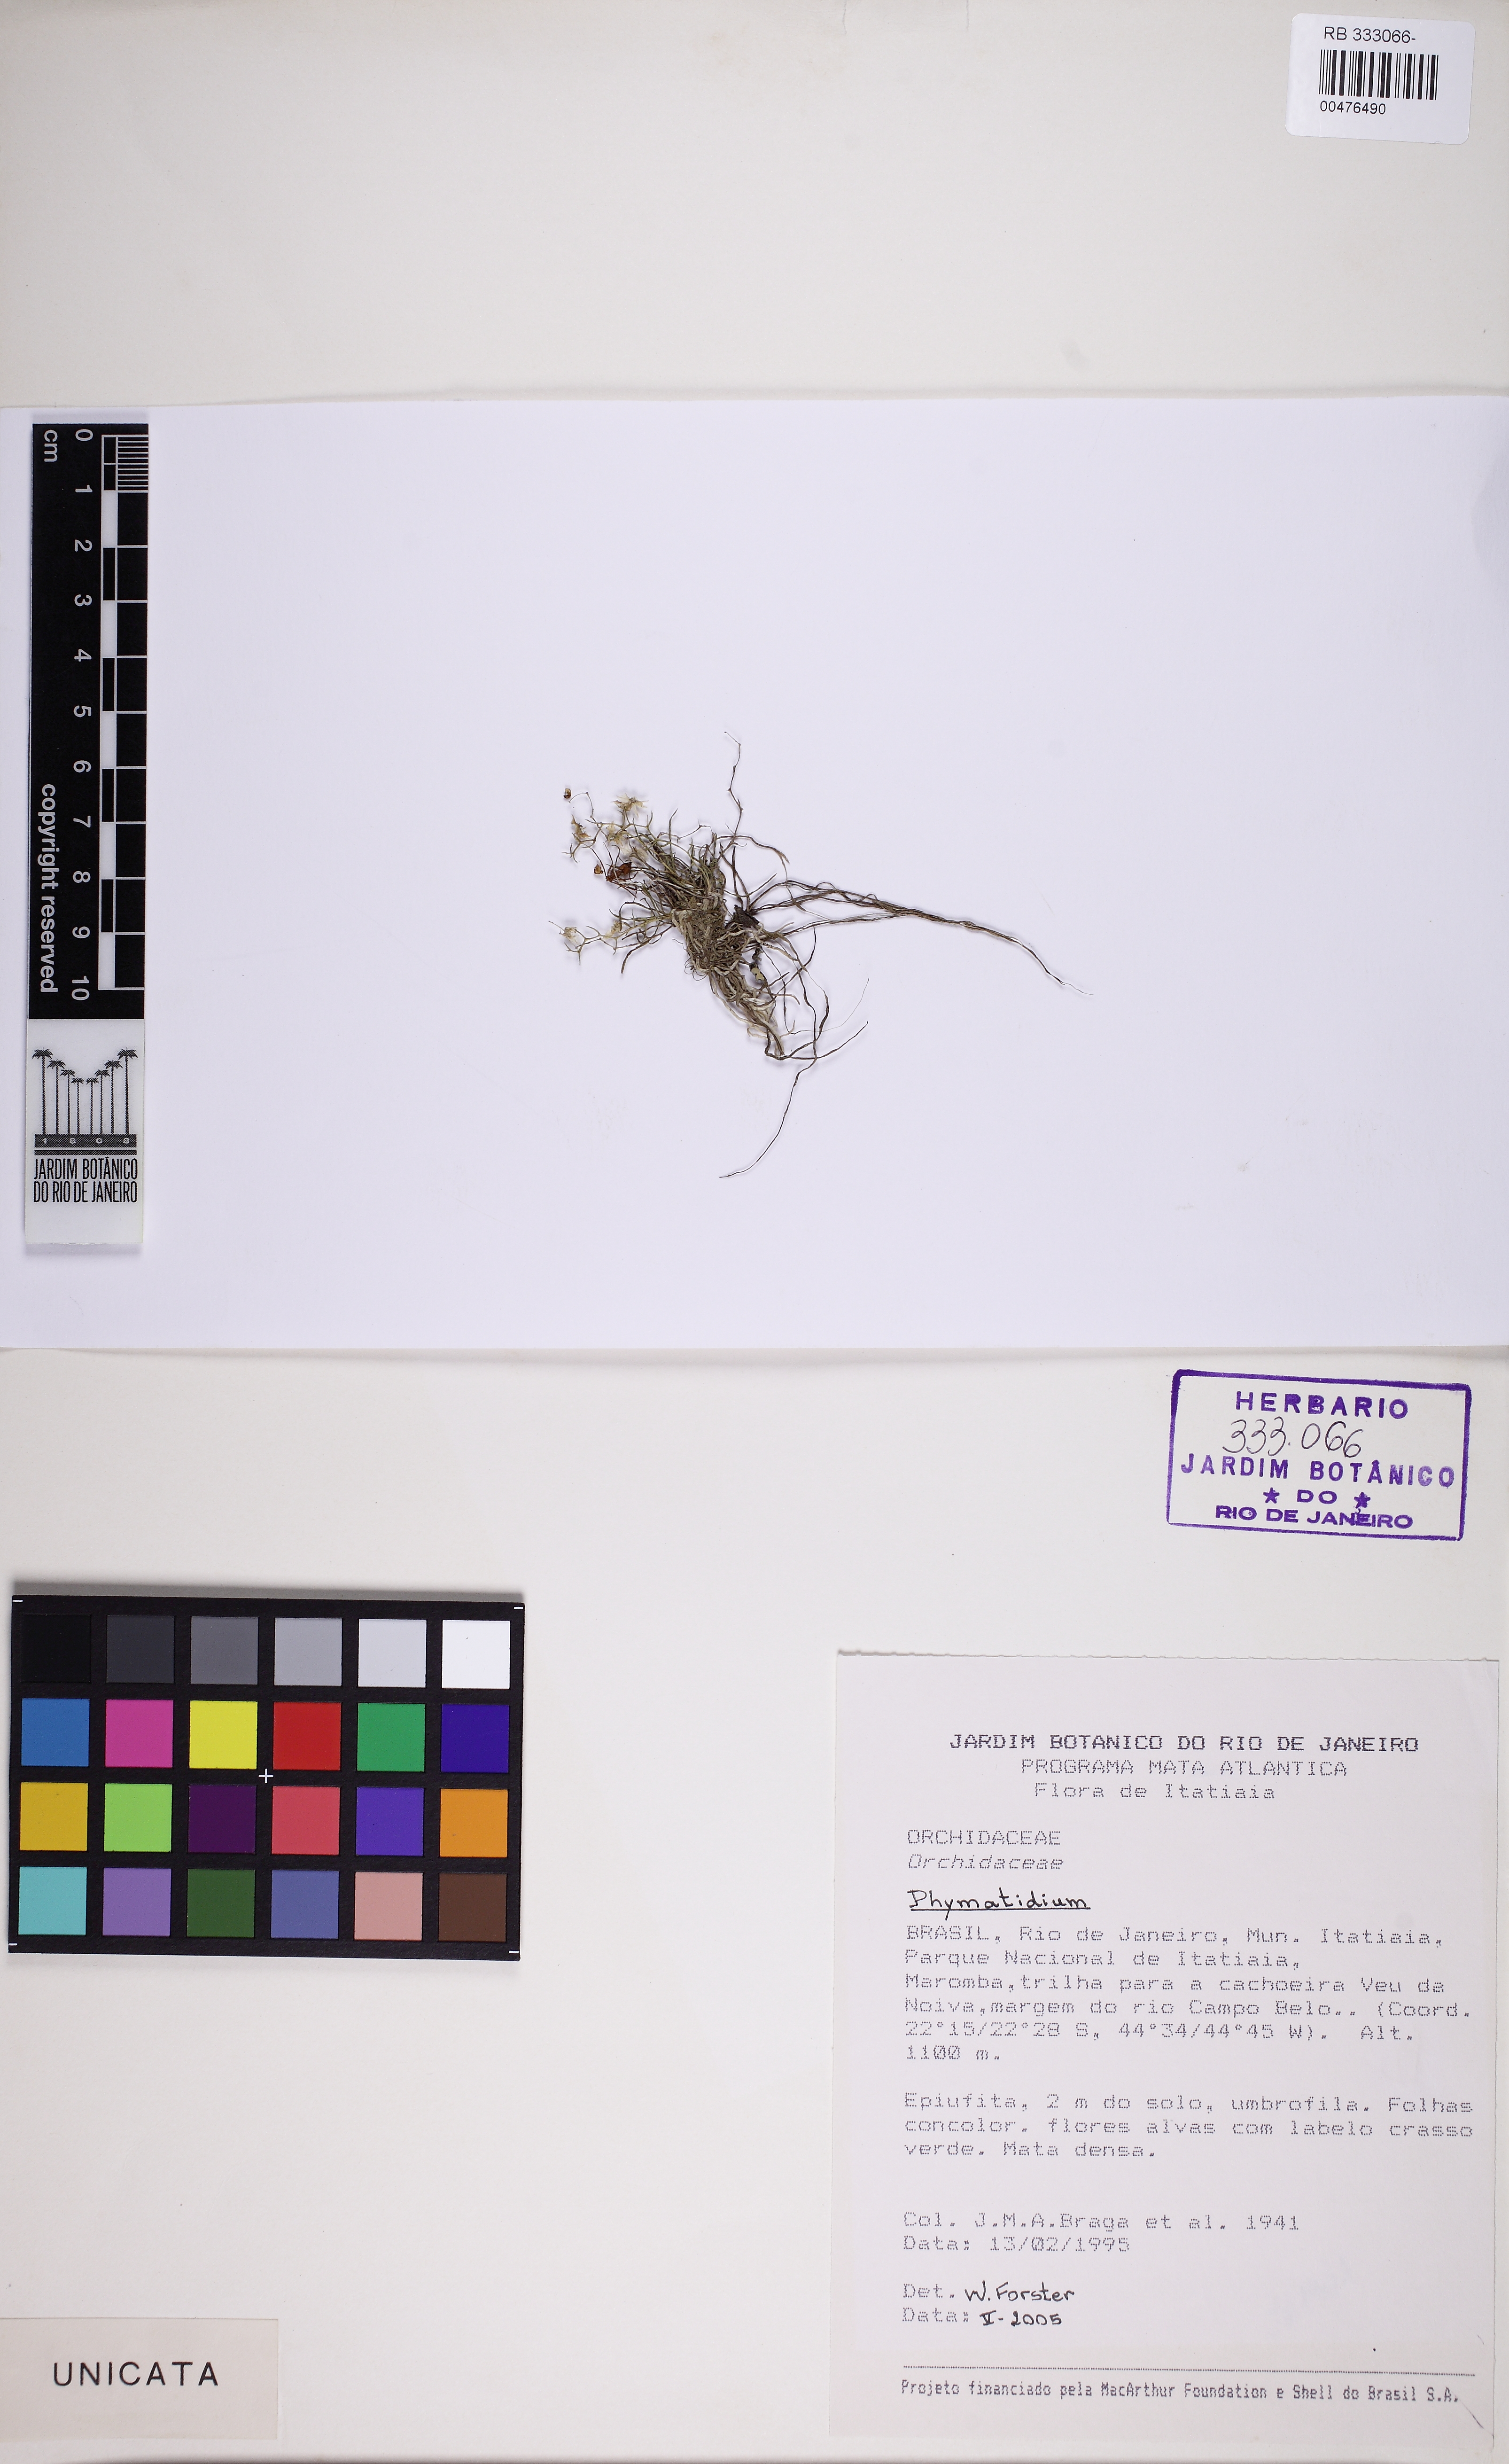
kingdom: Plantae
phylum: Tracheophyta
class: Liliopsida
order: Asparagales
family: Orchidaceae
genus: Phymatidium
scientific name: Phymatidium mellobarretoi
